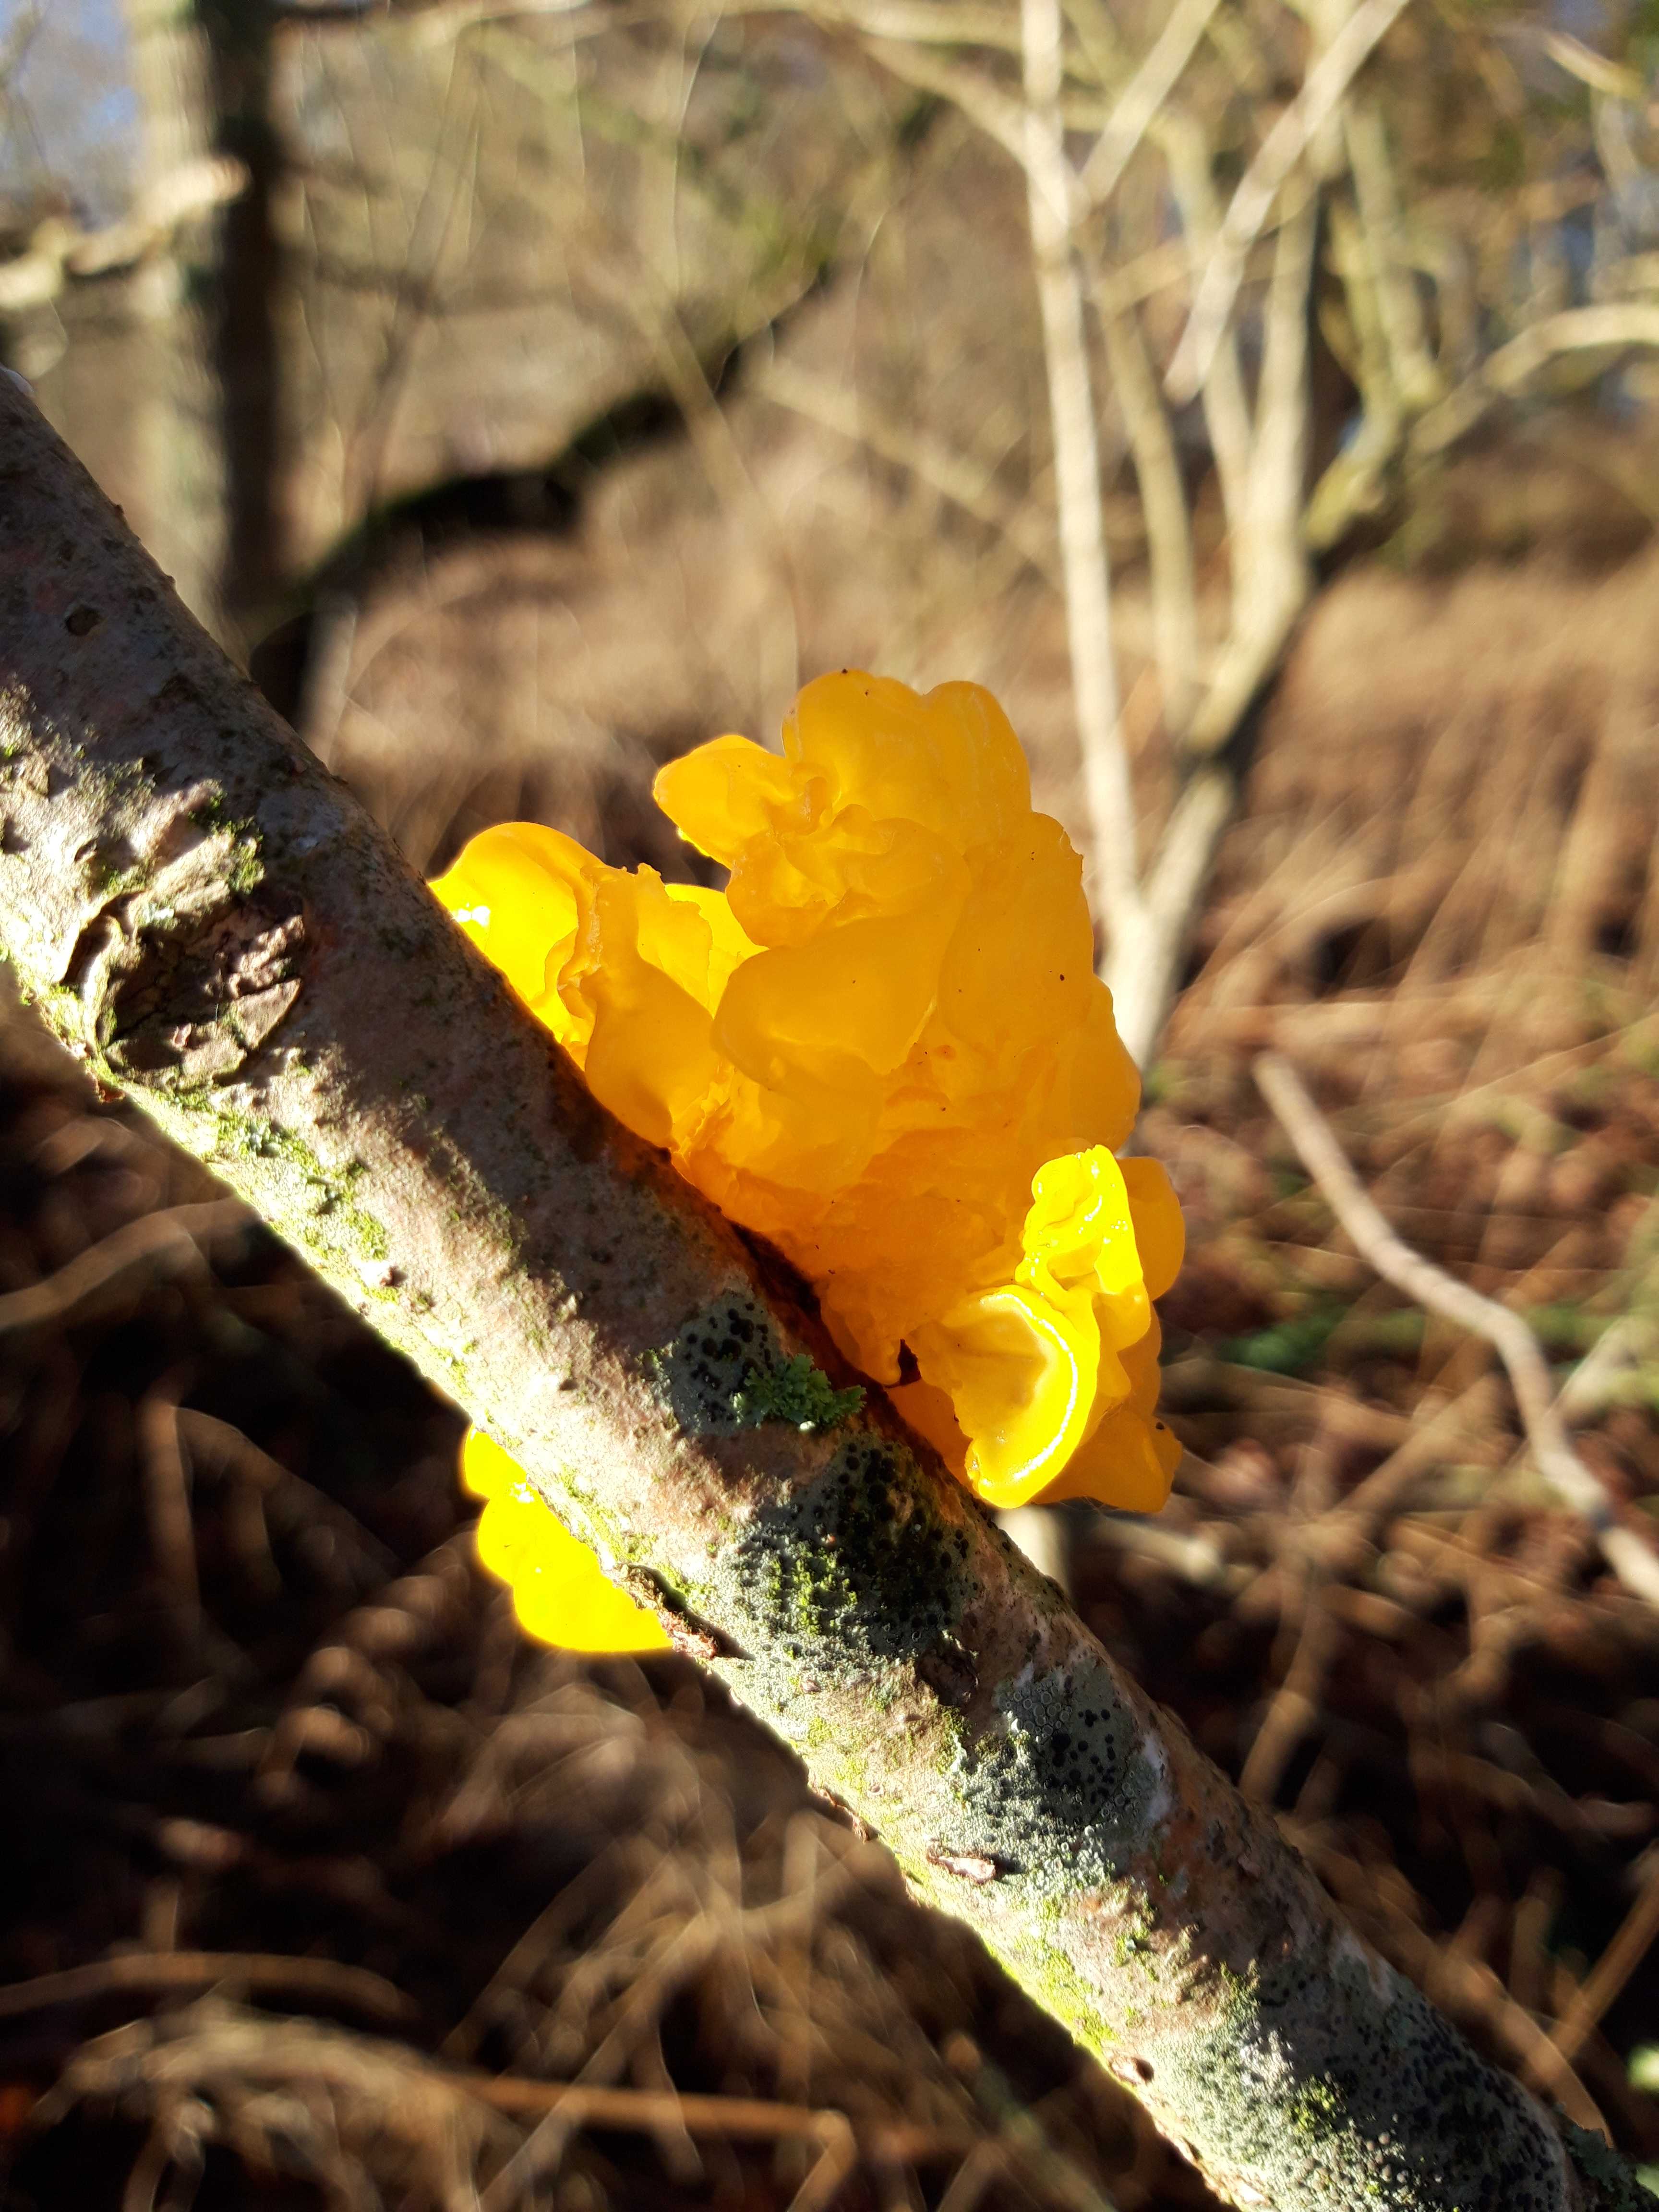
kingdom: Fungi
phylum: Basidiomycota
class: Tremellomycetes
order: Tremellales
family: Tremellaceae
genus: Tremella
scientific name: Tremella mesenterica
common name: gul bævresvamp
